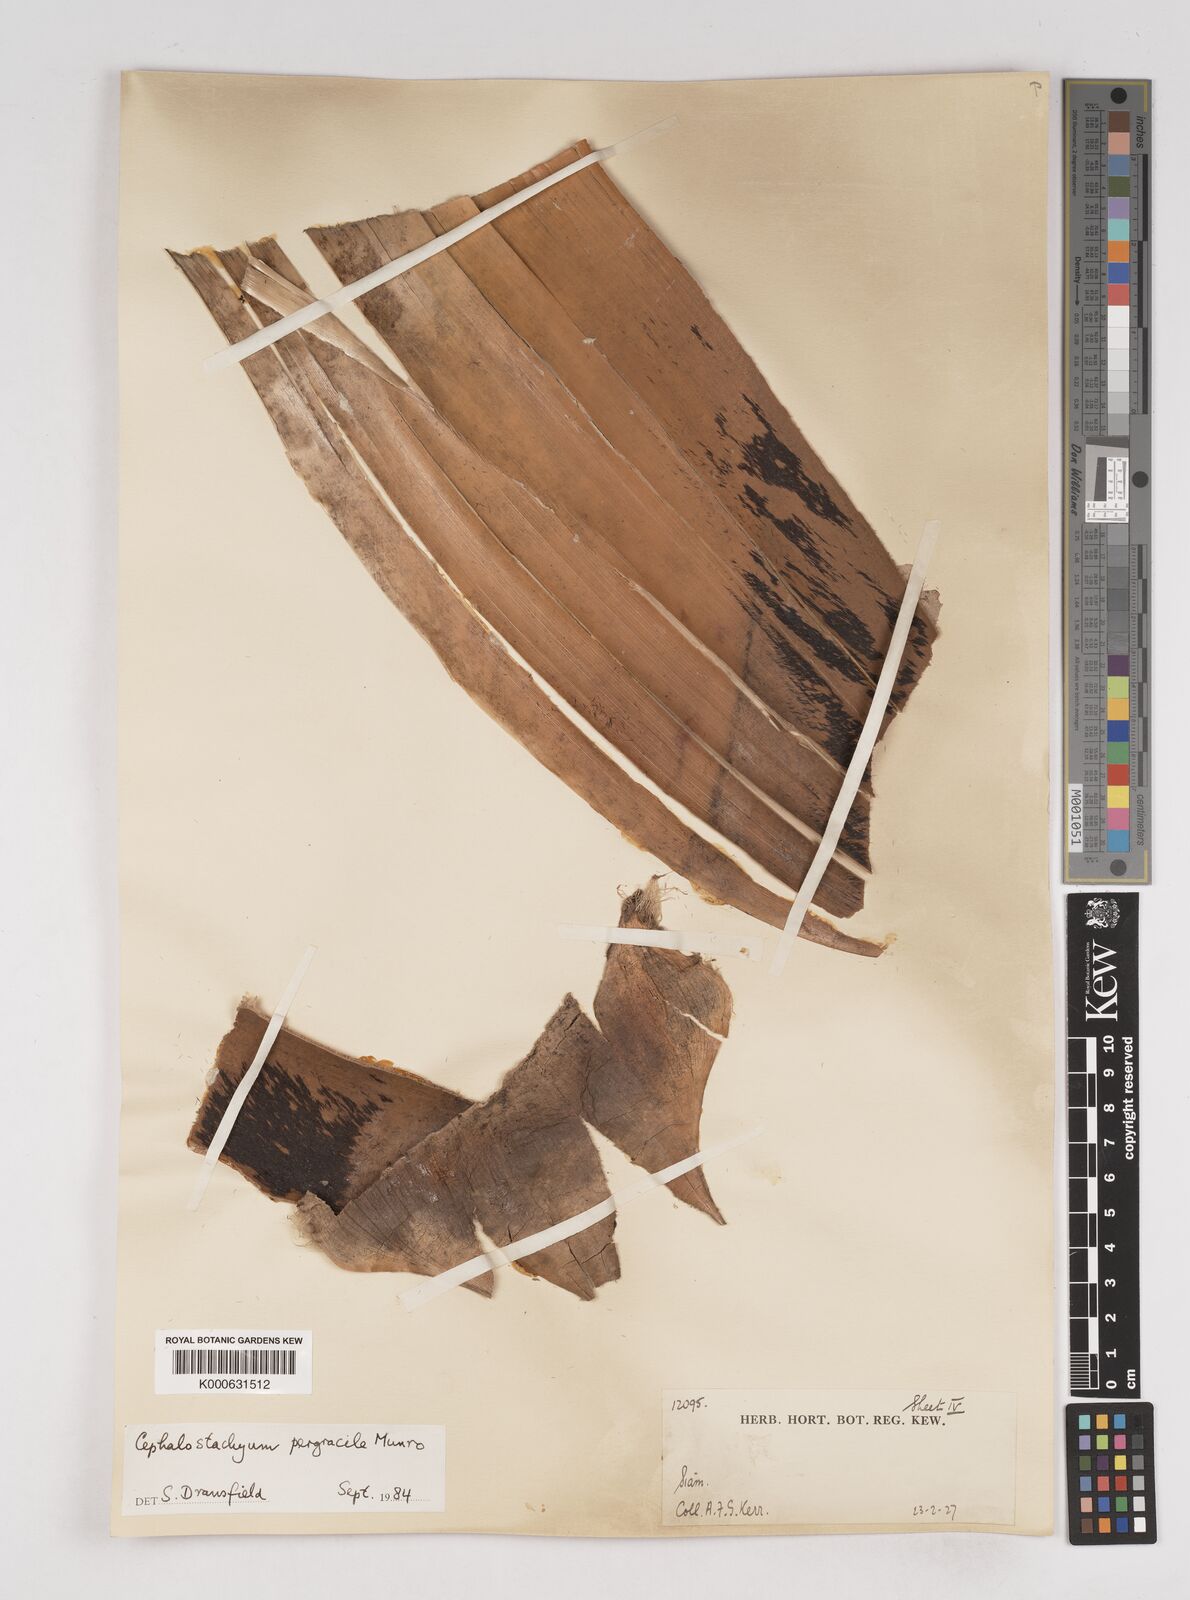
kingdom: Plantae
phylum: Tracheophyta
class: Liliopsida
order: Poales
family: Poaceae
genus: Schizostachyum
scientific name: Schizostachyum pergracile
